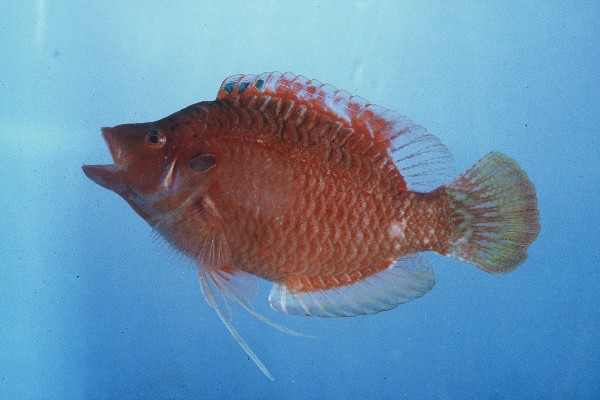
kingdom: Animalia
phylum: Chordata
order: Perciformes
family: Labridae
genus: Pteragogus
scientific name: Pteragogus pelycus
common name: Sideburn wrasse
